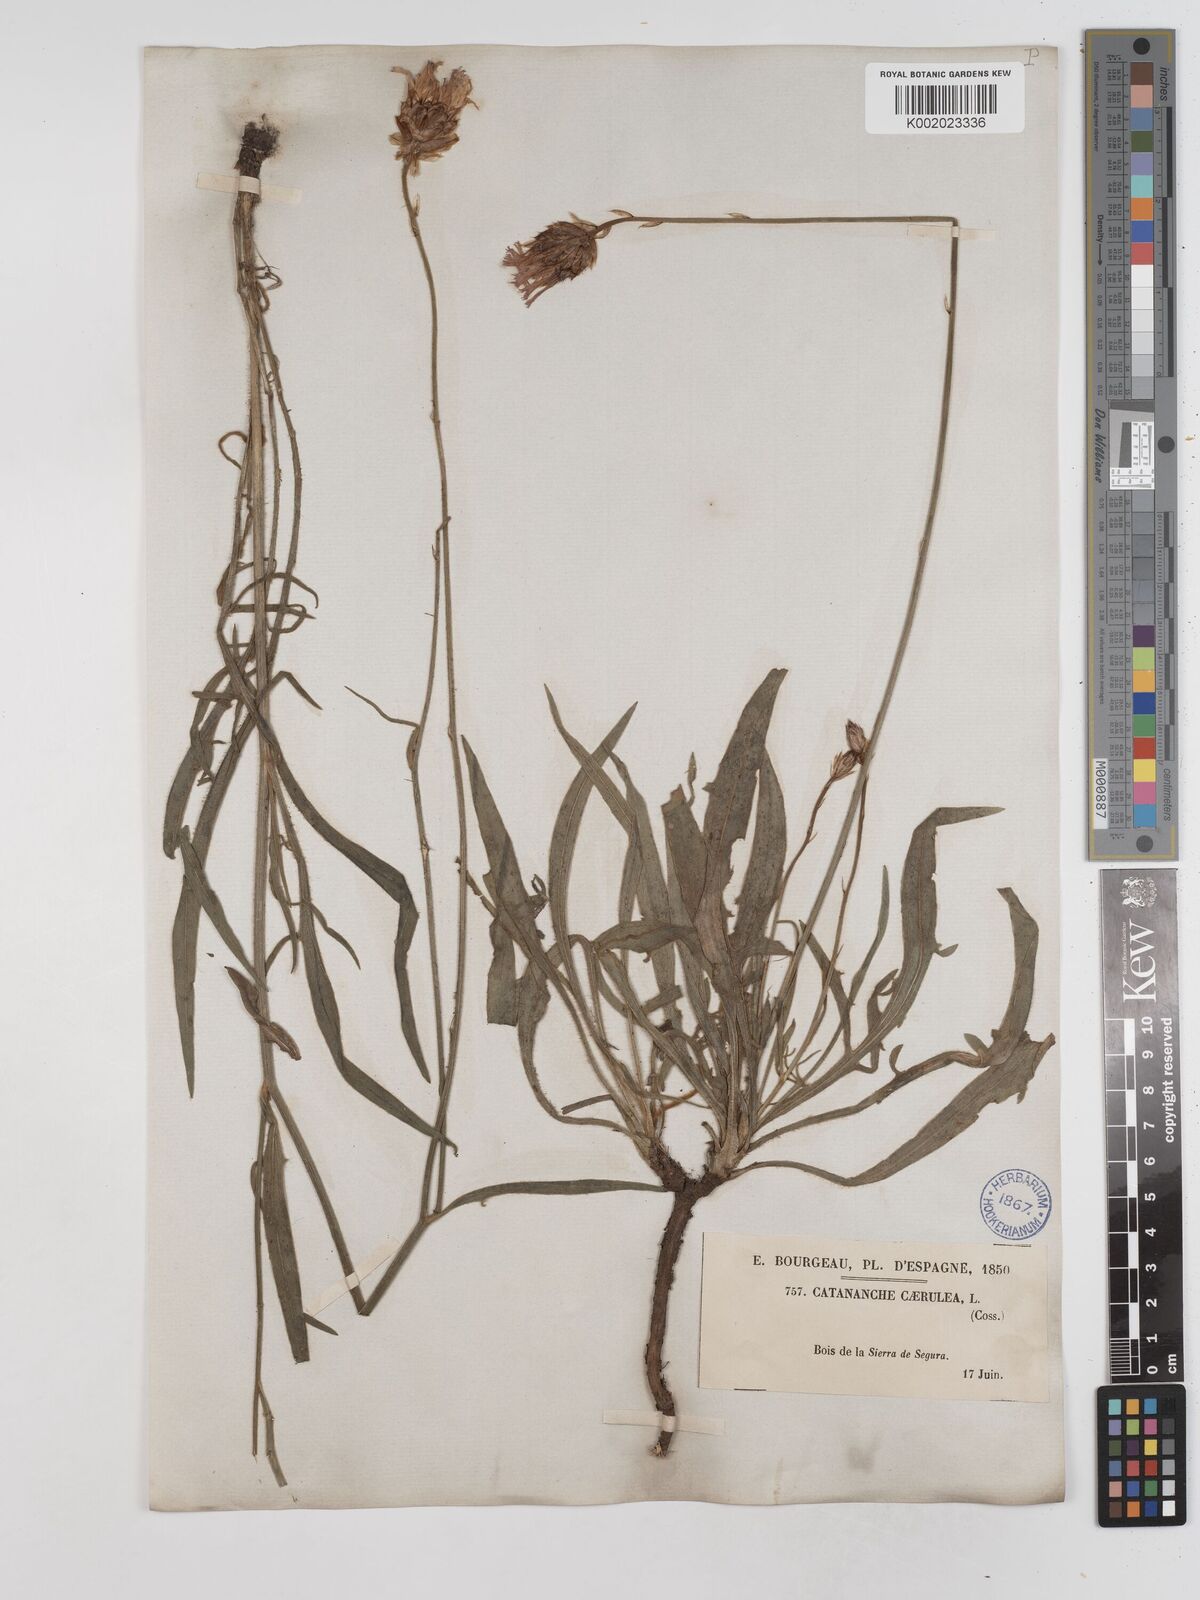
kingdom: Plantae
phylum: Tracheophyta
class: Magnoliopsida
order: Asterales
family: Asteraceae
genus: Catananche
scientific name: Catananche caerulea
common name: Blue cupidone
